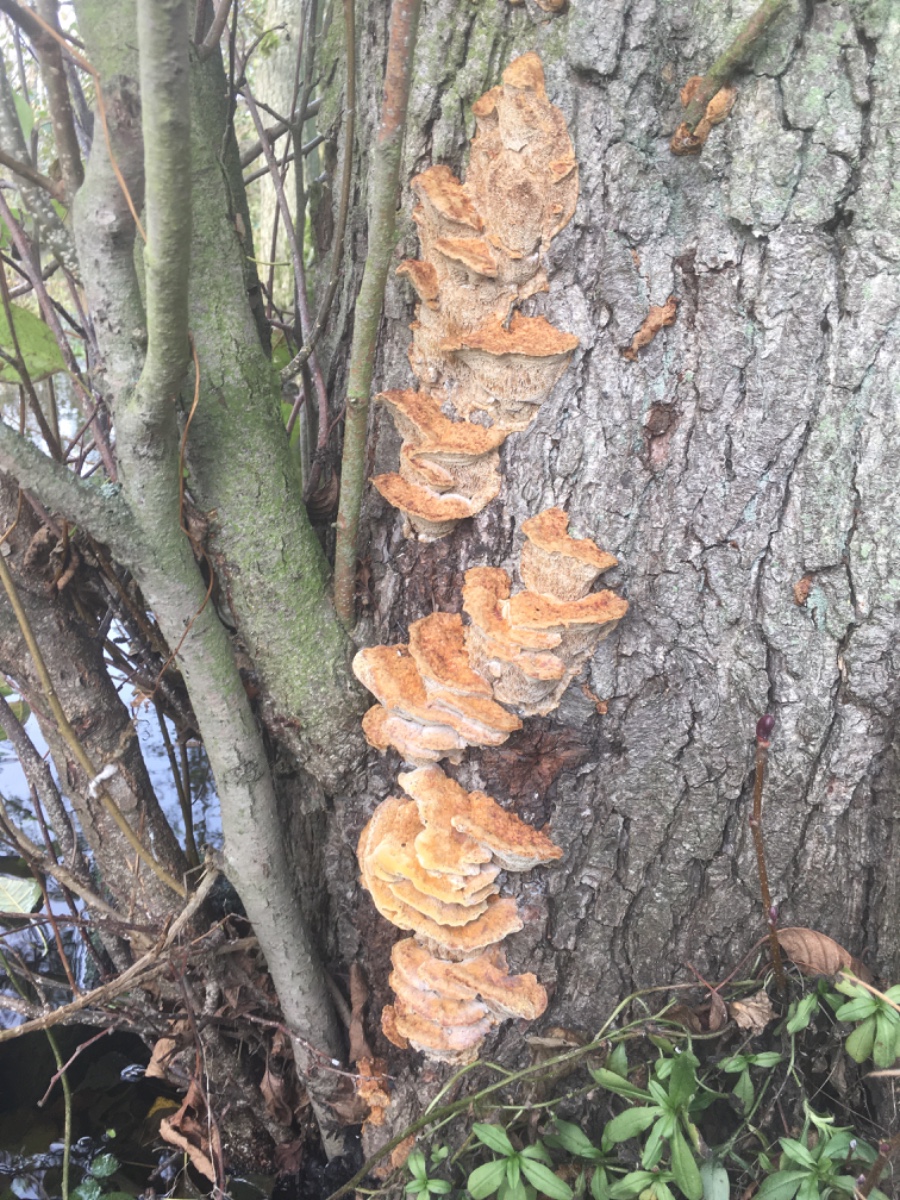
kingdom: Fungi
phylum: Basidiomycota
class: Agaricomycetes
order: Hymenochaetales
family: Hymenochaetaceae
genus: Xanthoporia
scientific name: Xanthoporia radiata
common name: elle-spejlporesvamp
